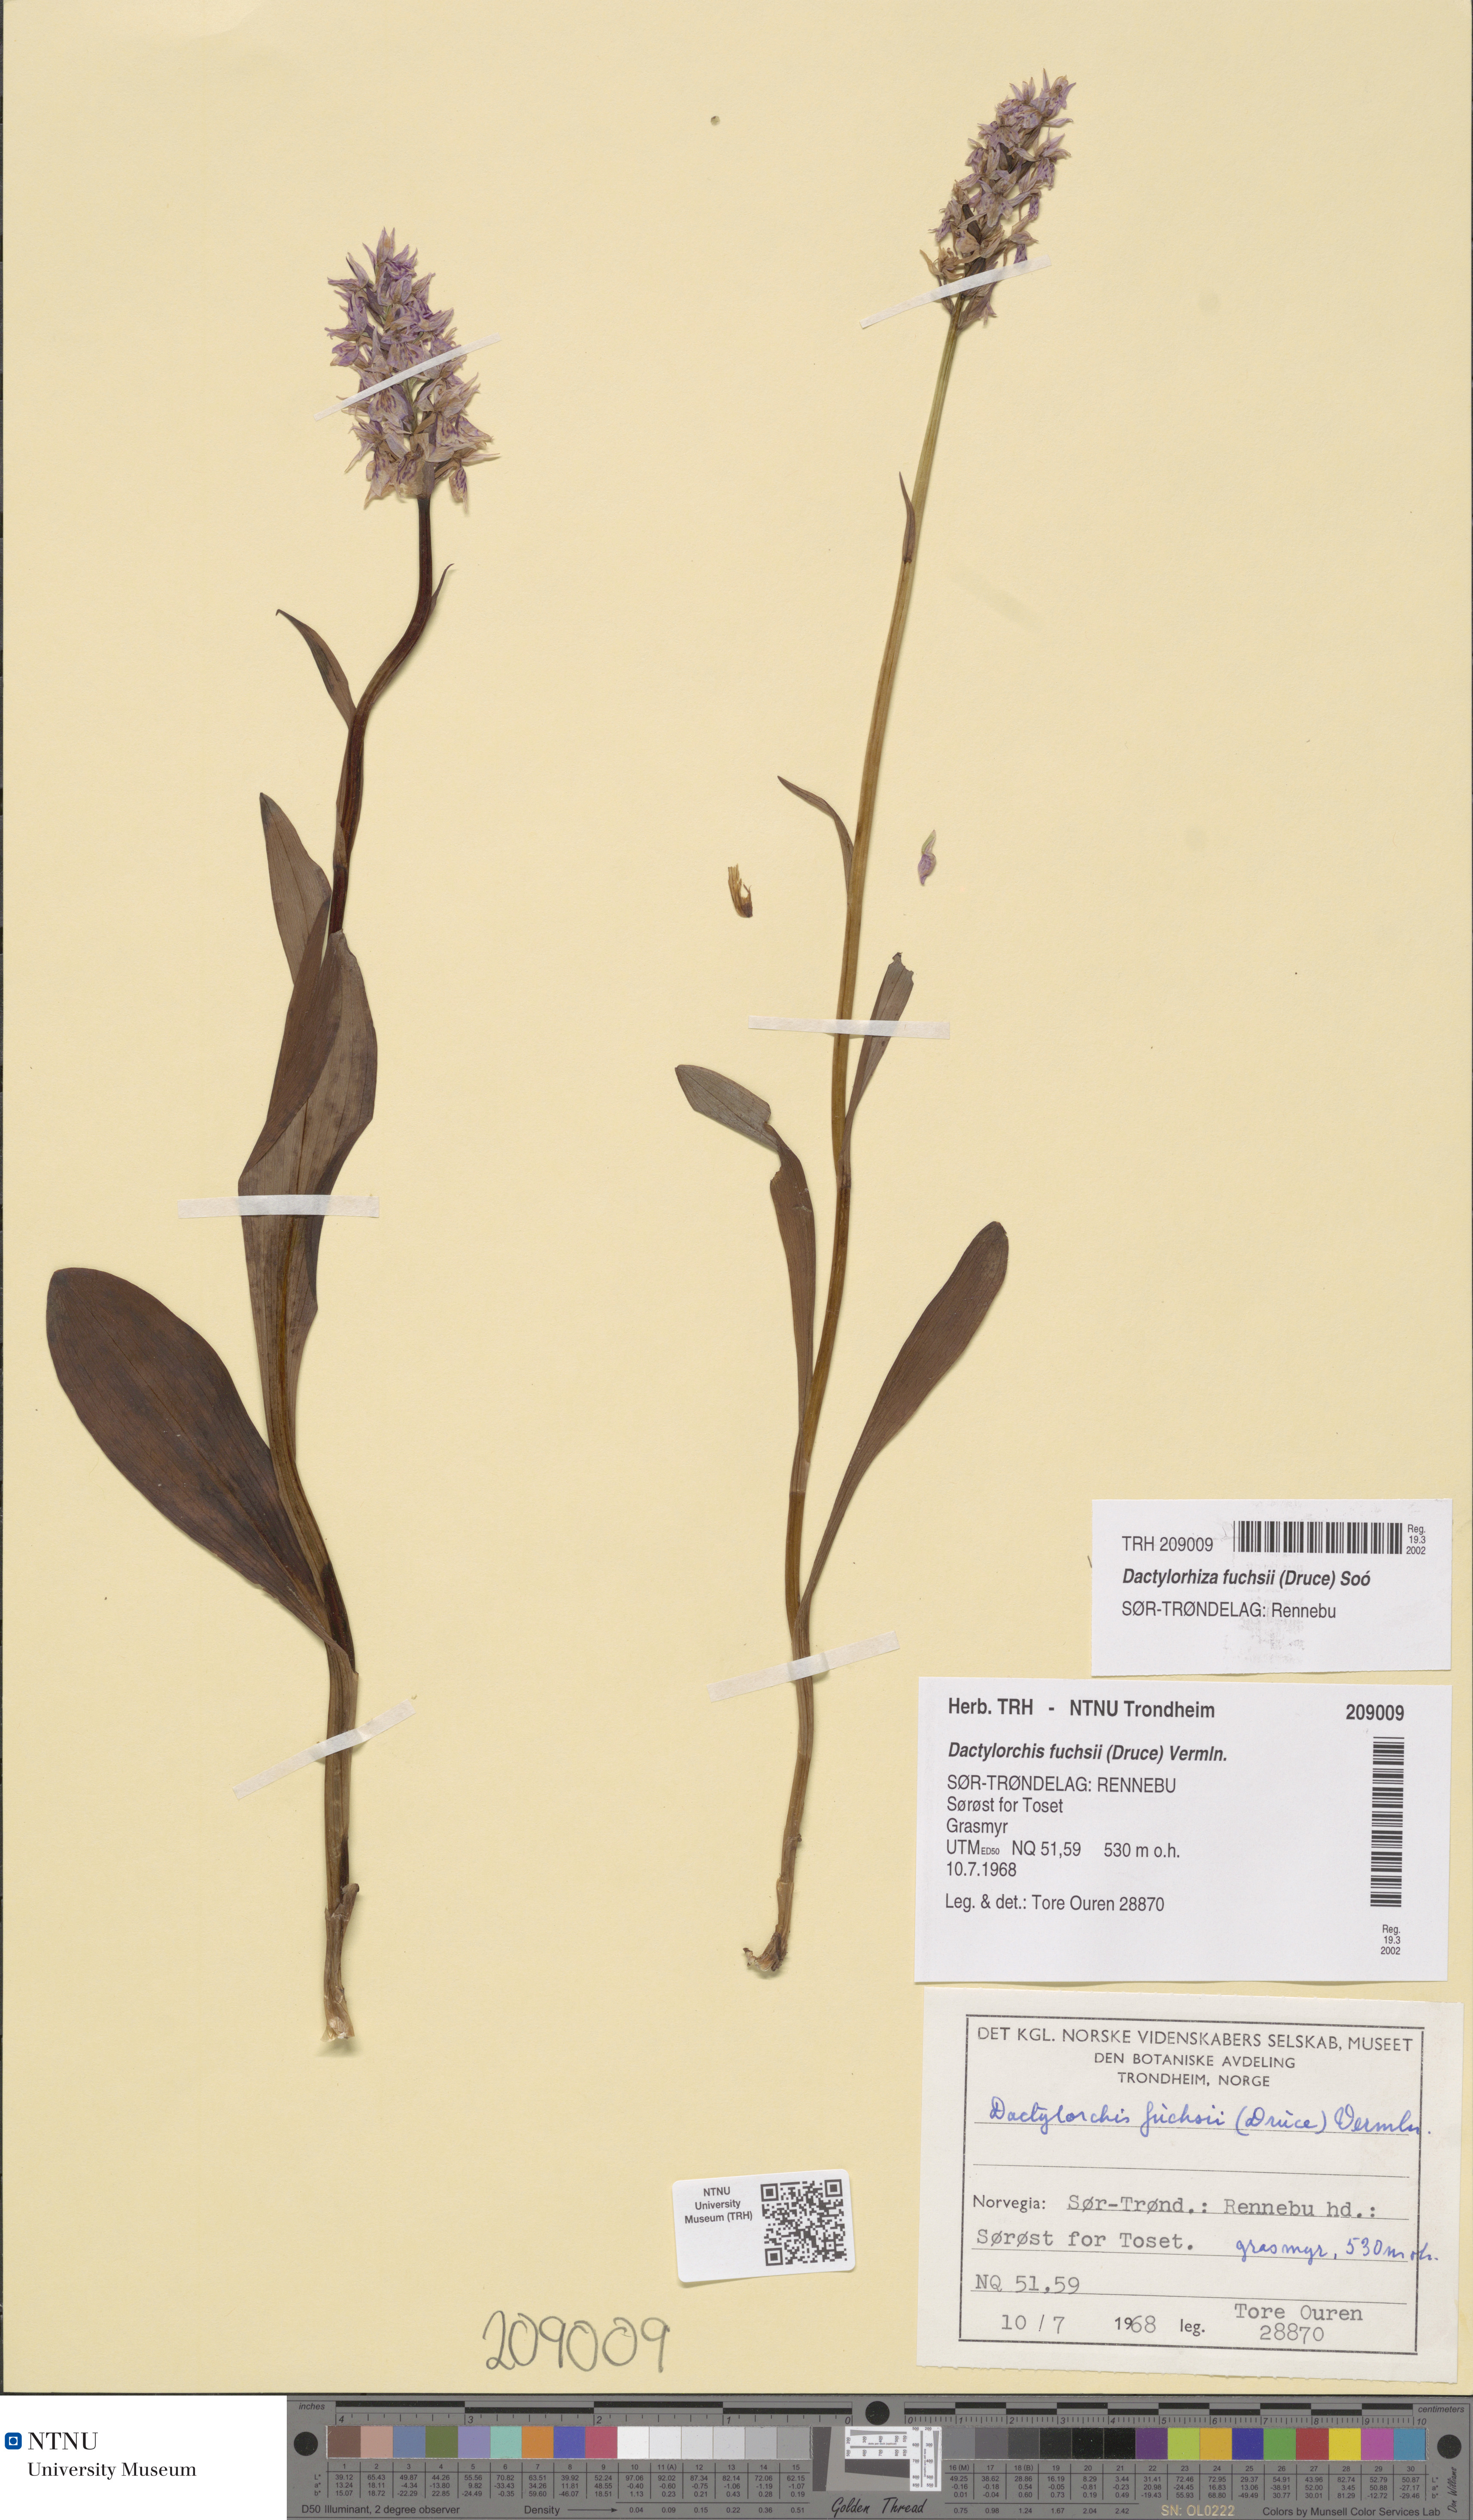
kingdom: Plantae
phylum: Tracheophyta
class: Liliopsida
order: Asparagales
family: Orchidaceae
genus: Dactylorhiza
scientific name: Dactylorhiza maculata
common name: Heath spotted-orchid
